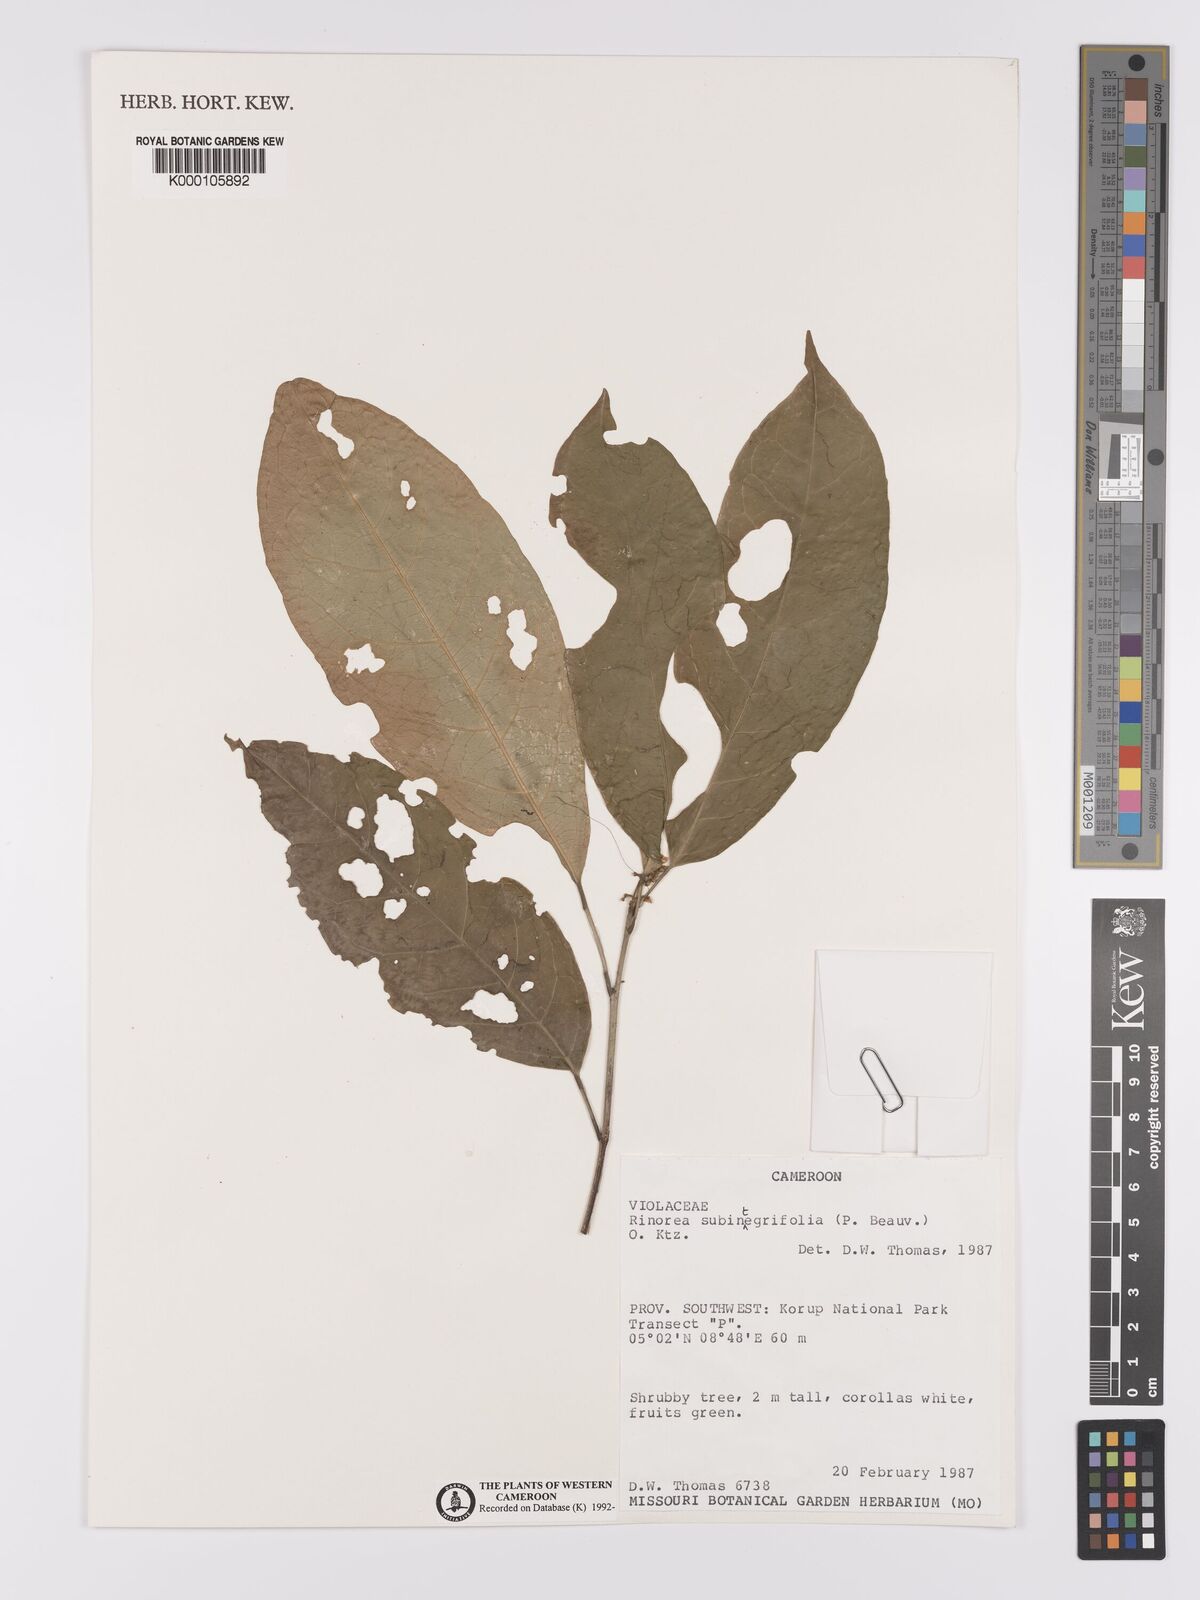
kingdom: Plantae
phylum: Tracheophyta
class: Magnoliopsida
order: Malpighiales
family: Violaceae
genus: Rinorea
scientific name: Rinorea subintegrifolia
